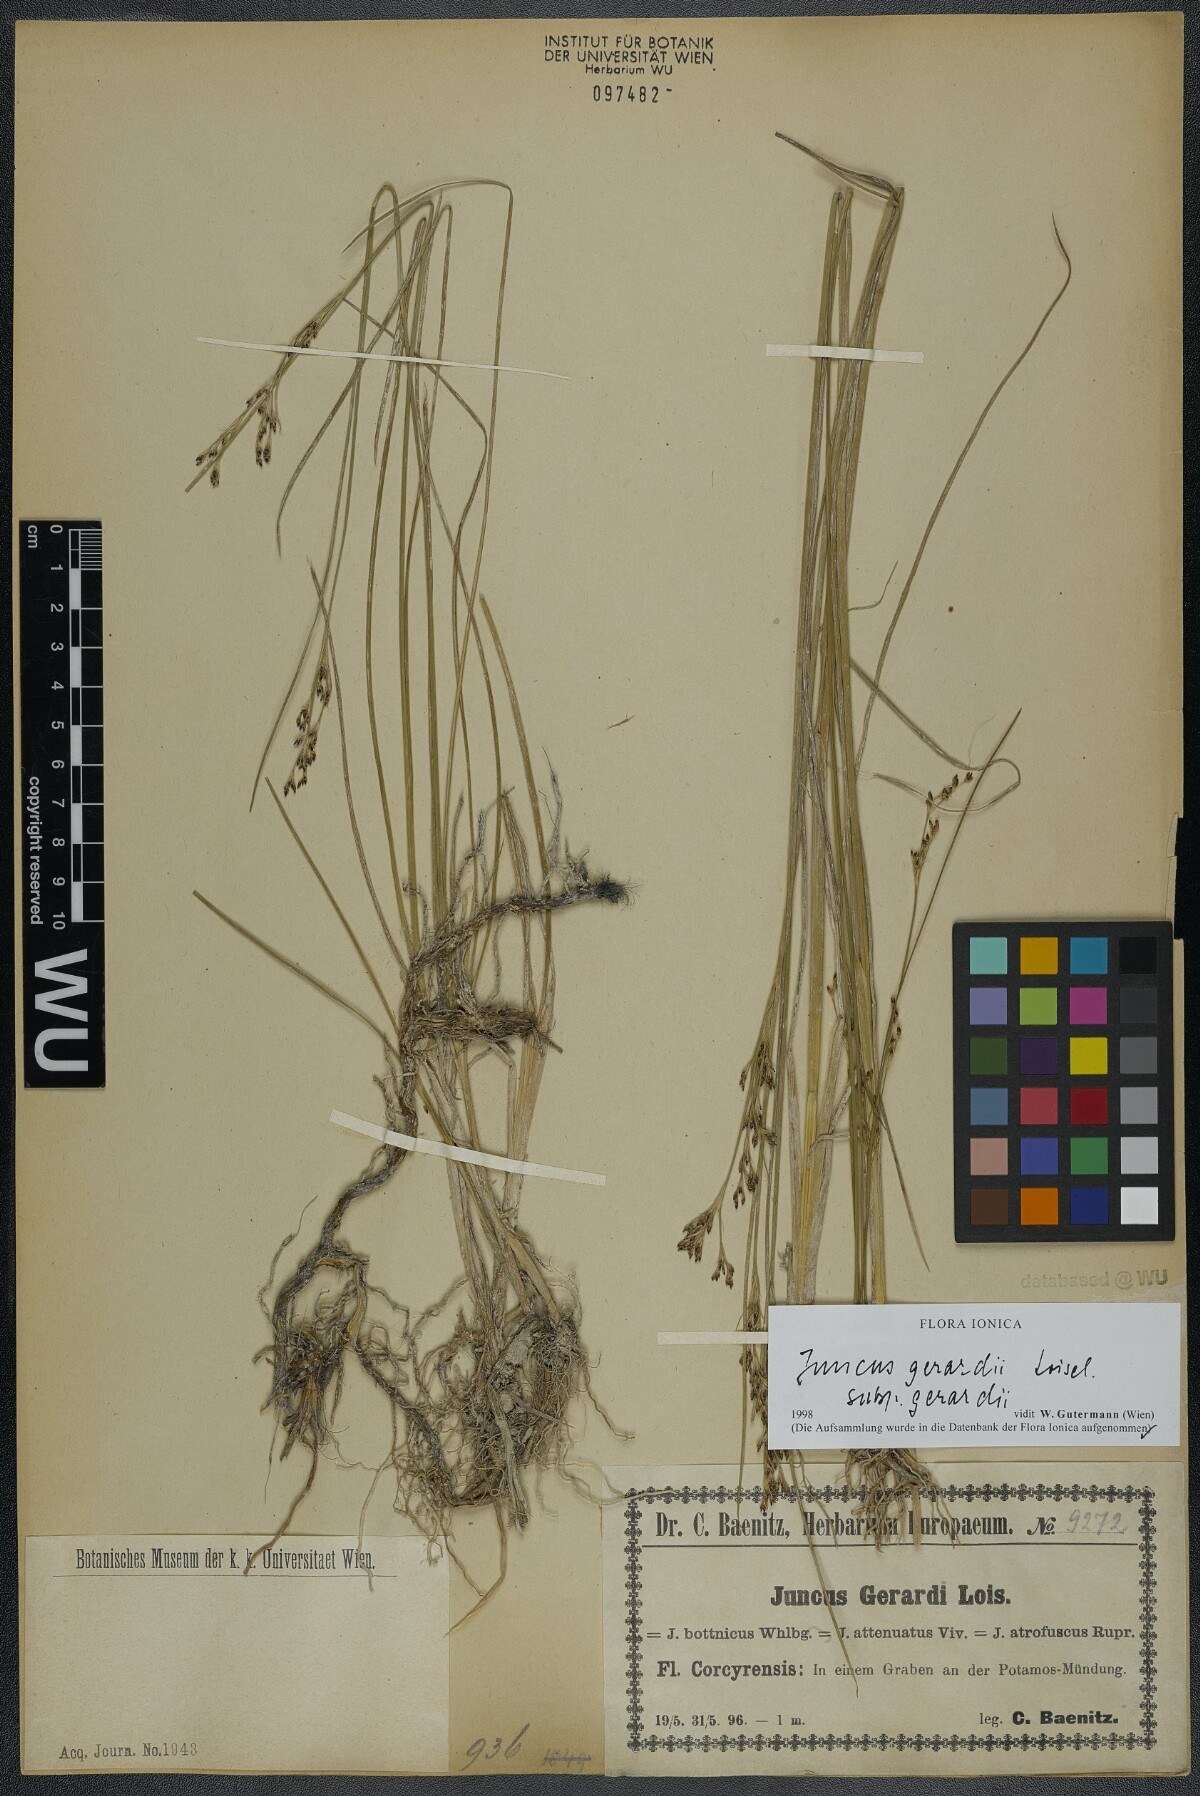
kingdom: Plantae
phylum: Tracheophyta
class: Liliopsida
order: Poales
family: Juncaceae
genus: Juncus
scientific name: Juncus gerardi
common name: Saltmarsh rush
